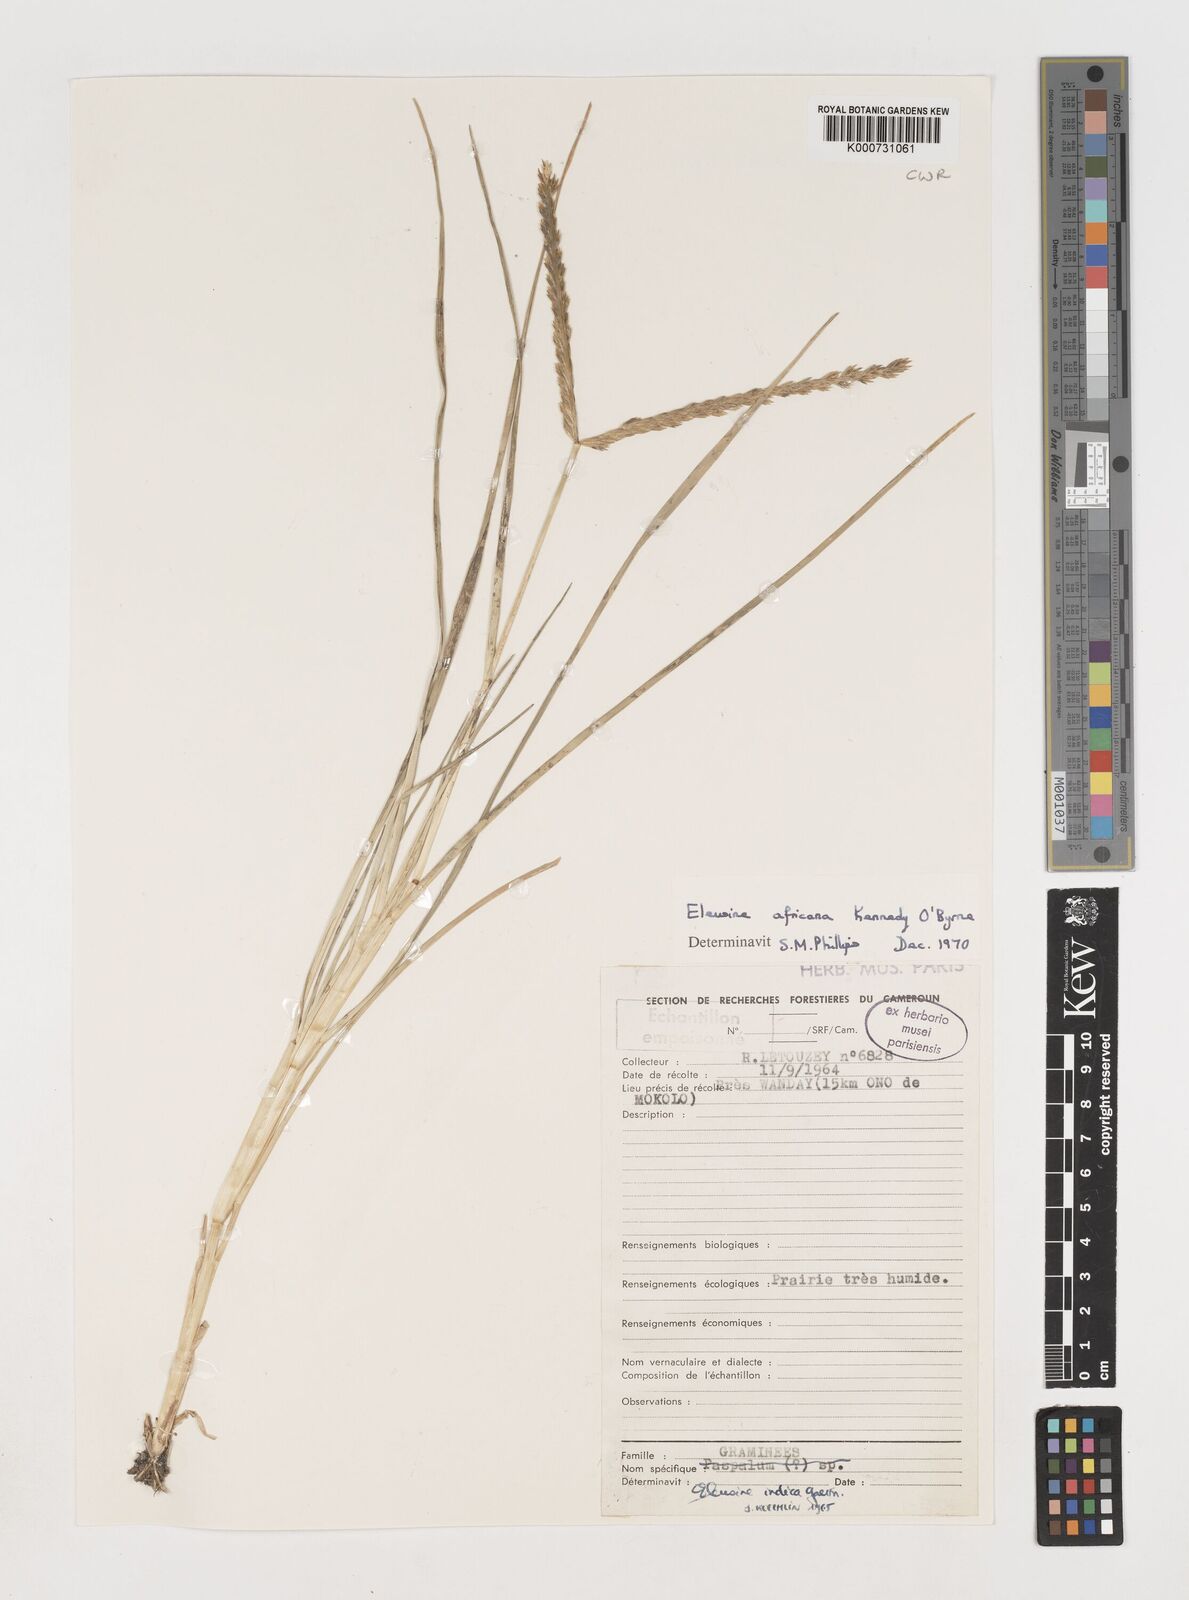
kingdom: Plantae
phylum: Tracheophyta
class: Liliopsida
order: Poales
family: Poaceae
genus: Eleusine
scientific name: Eleusine africana
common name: Wild african finger millet
